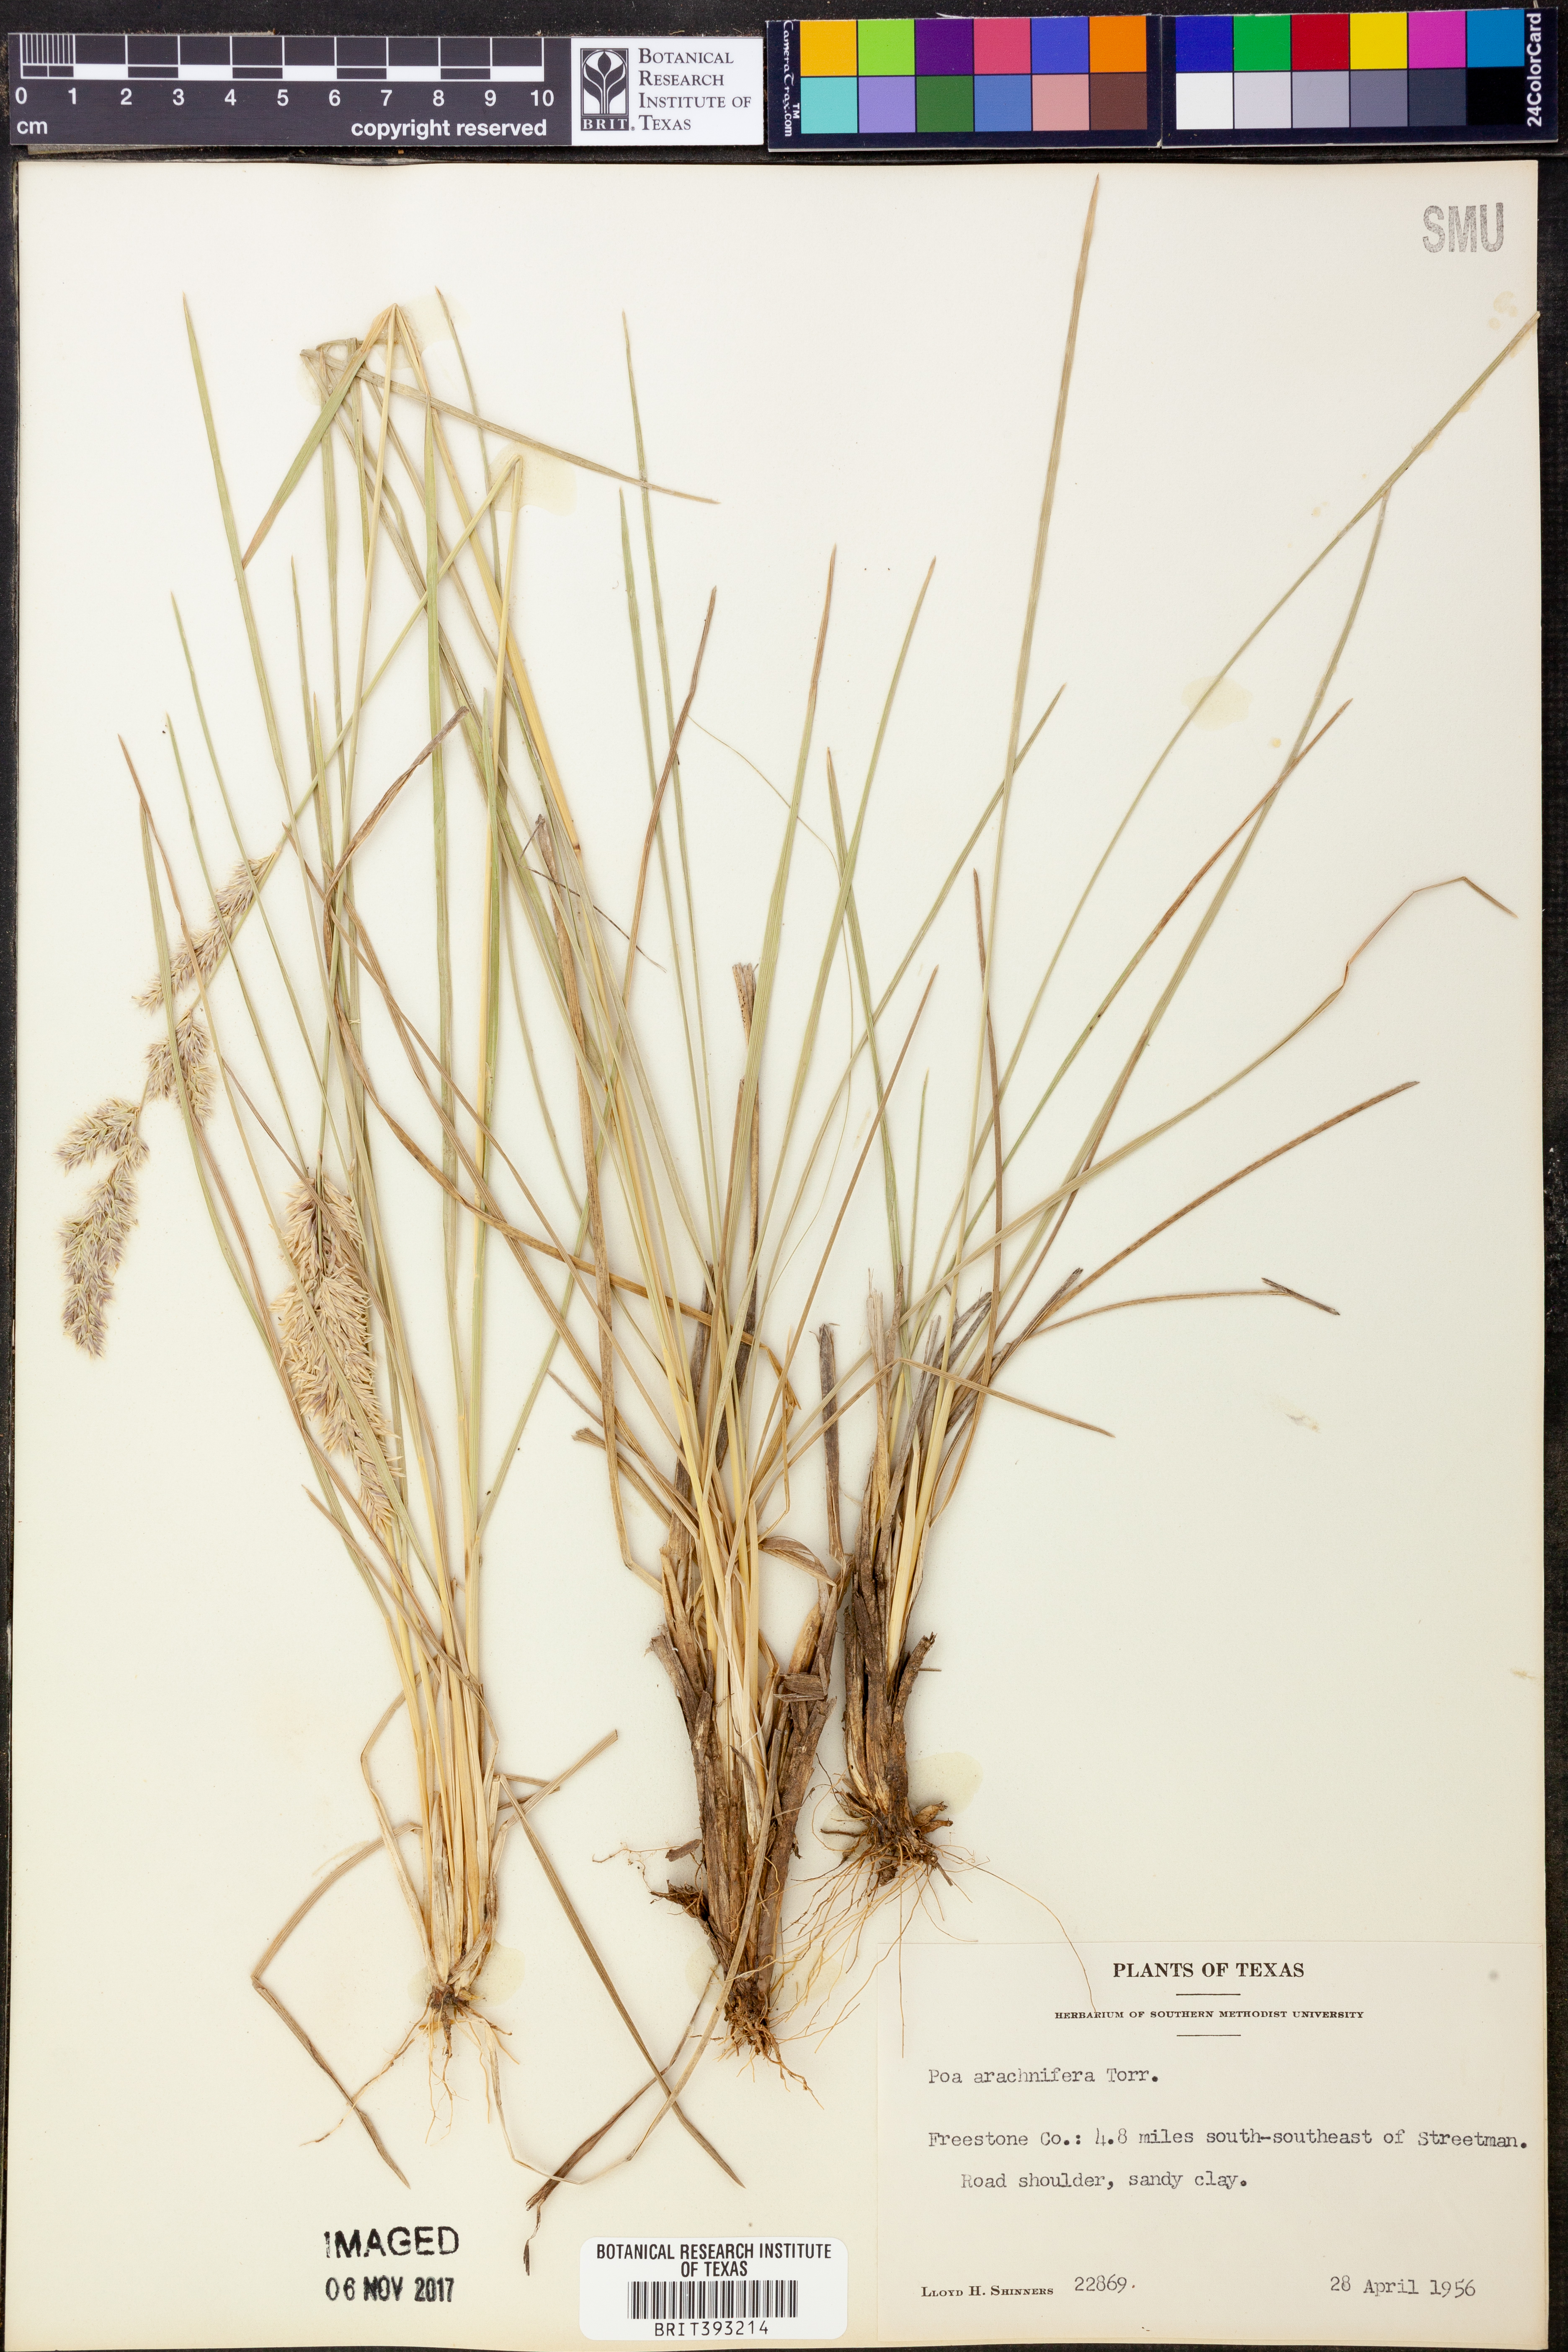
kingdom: Plantae
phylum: Tracheophyta
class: Liliopsida
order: Poales
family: Poaceae
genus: Poa
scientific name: Poa arachnifera
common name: Texas bluegrass
